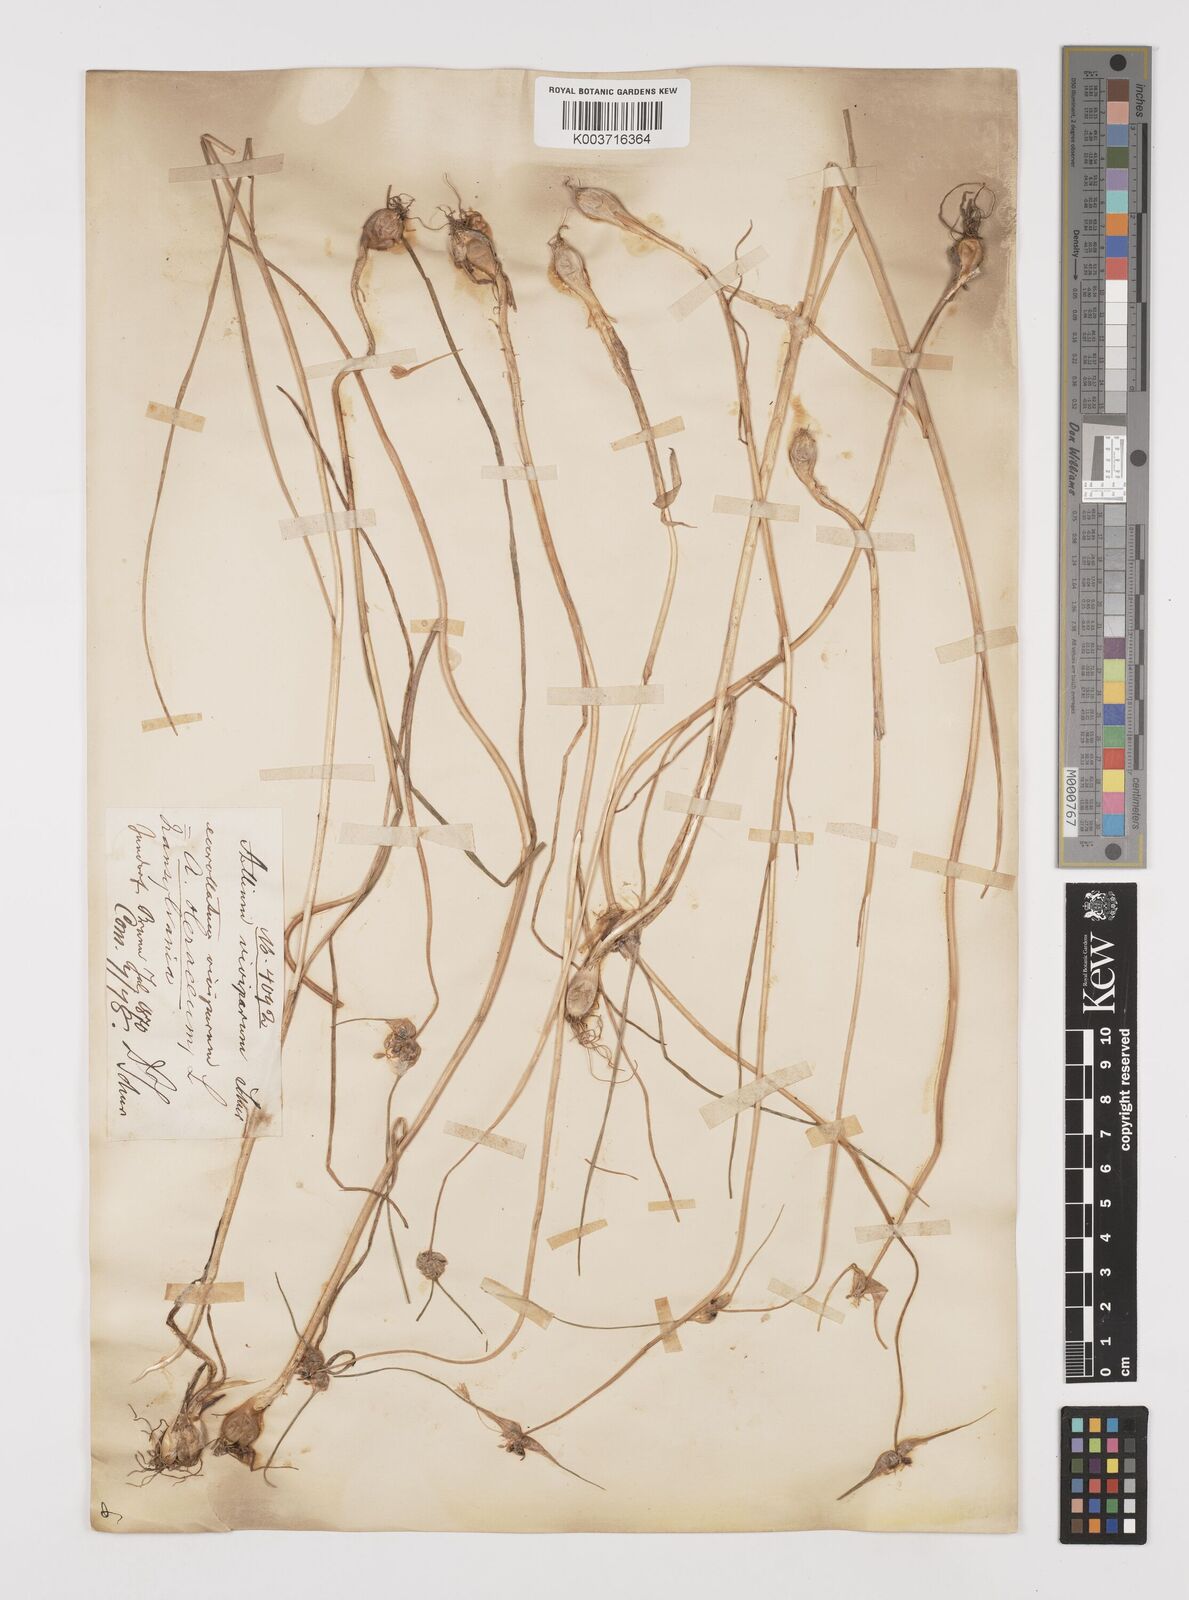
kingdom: Plantae
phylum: Tracheophyta
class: Liliopsida
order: Asparagales
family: Amaryllidaceae
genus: Allium
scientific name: Allium oleraceum
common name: Field garlic
